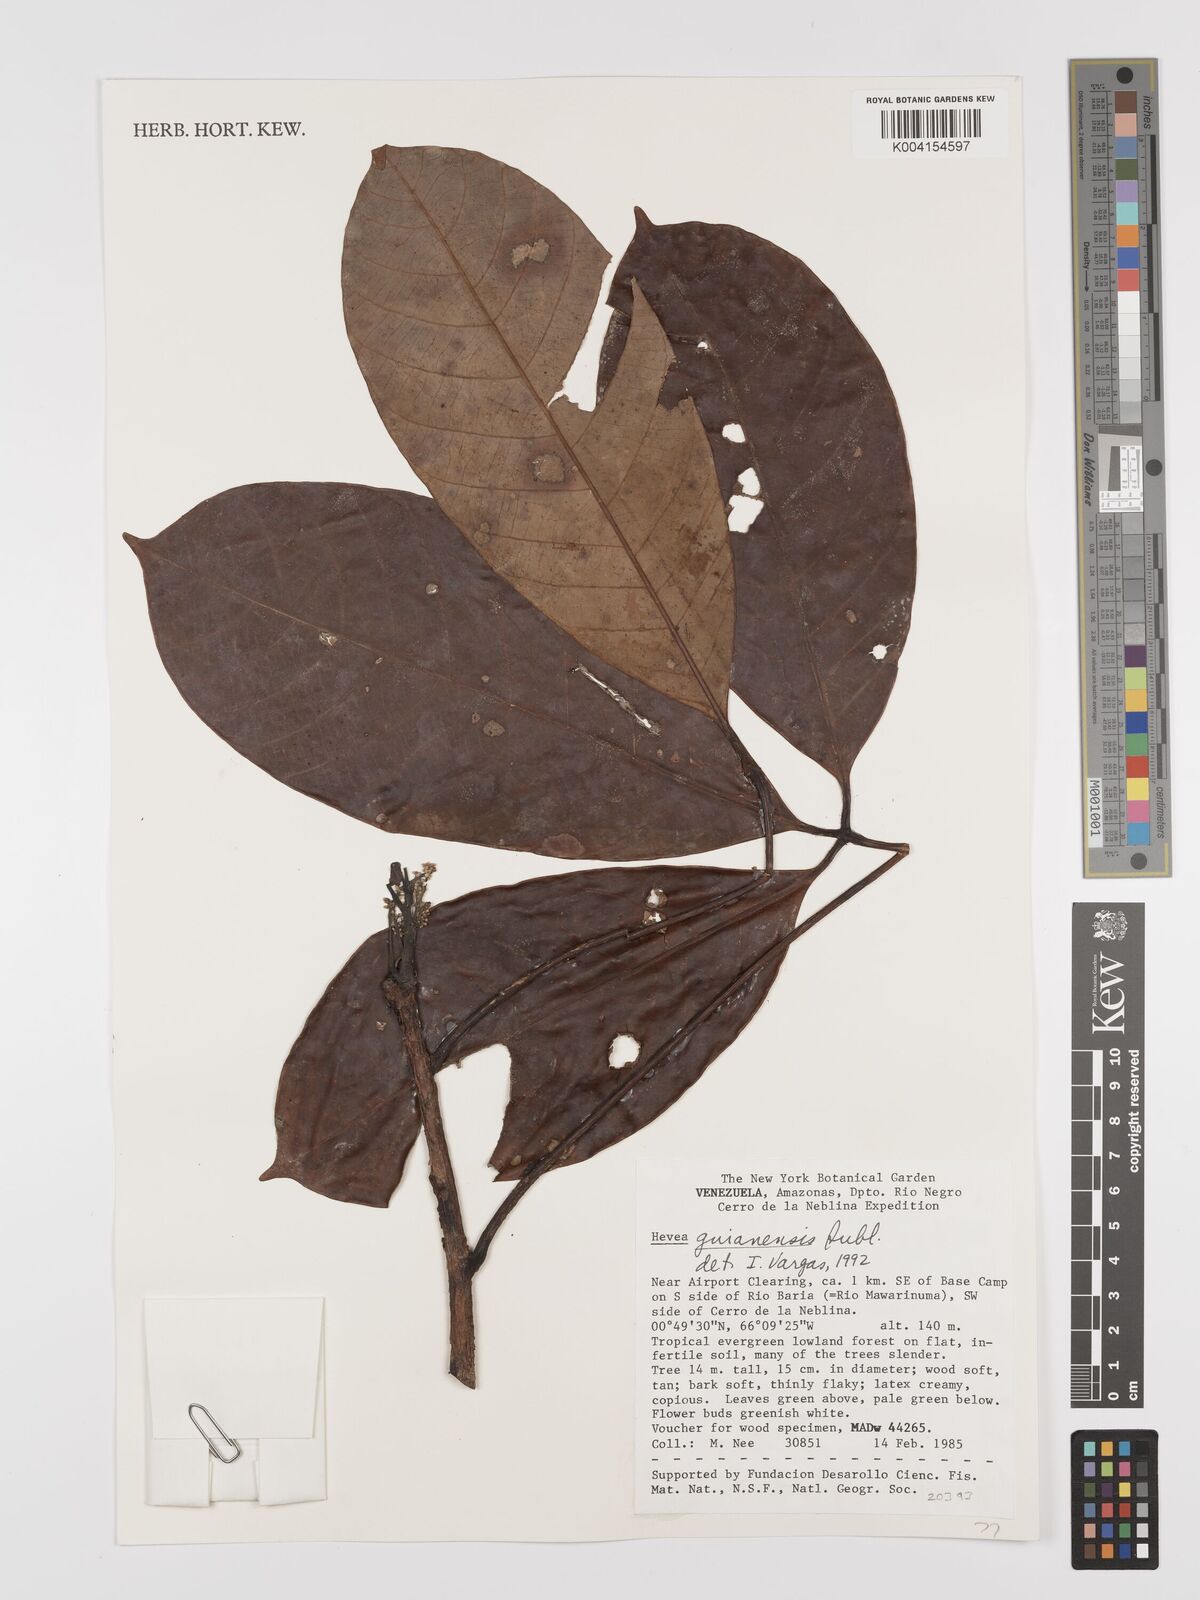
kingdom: Plantae
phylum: Tracheophyta
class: Magnoliopsida
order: Malpighiales
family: Euphorbiaceae
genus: Hevea
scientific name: Hevea guianensis
